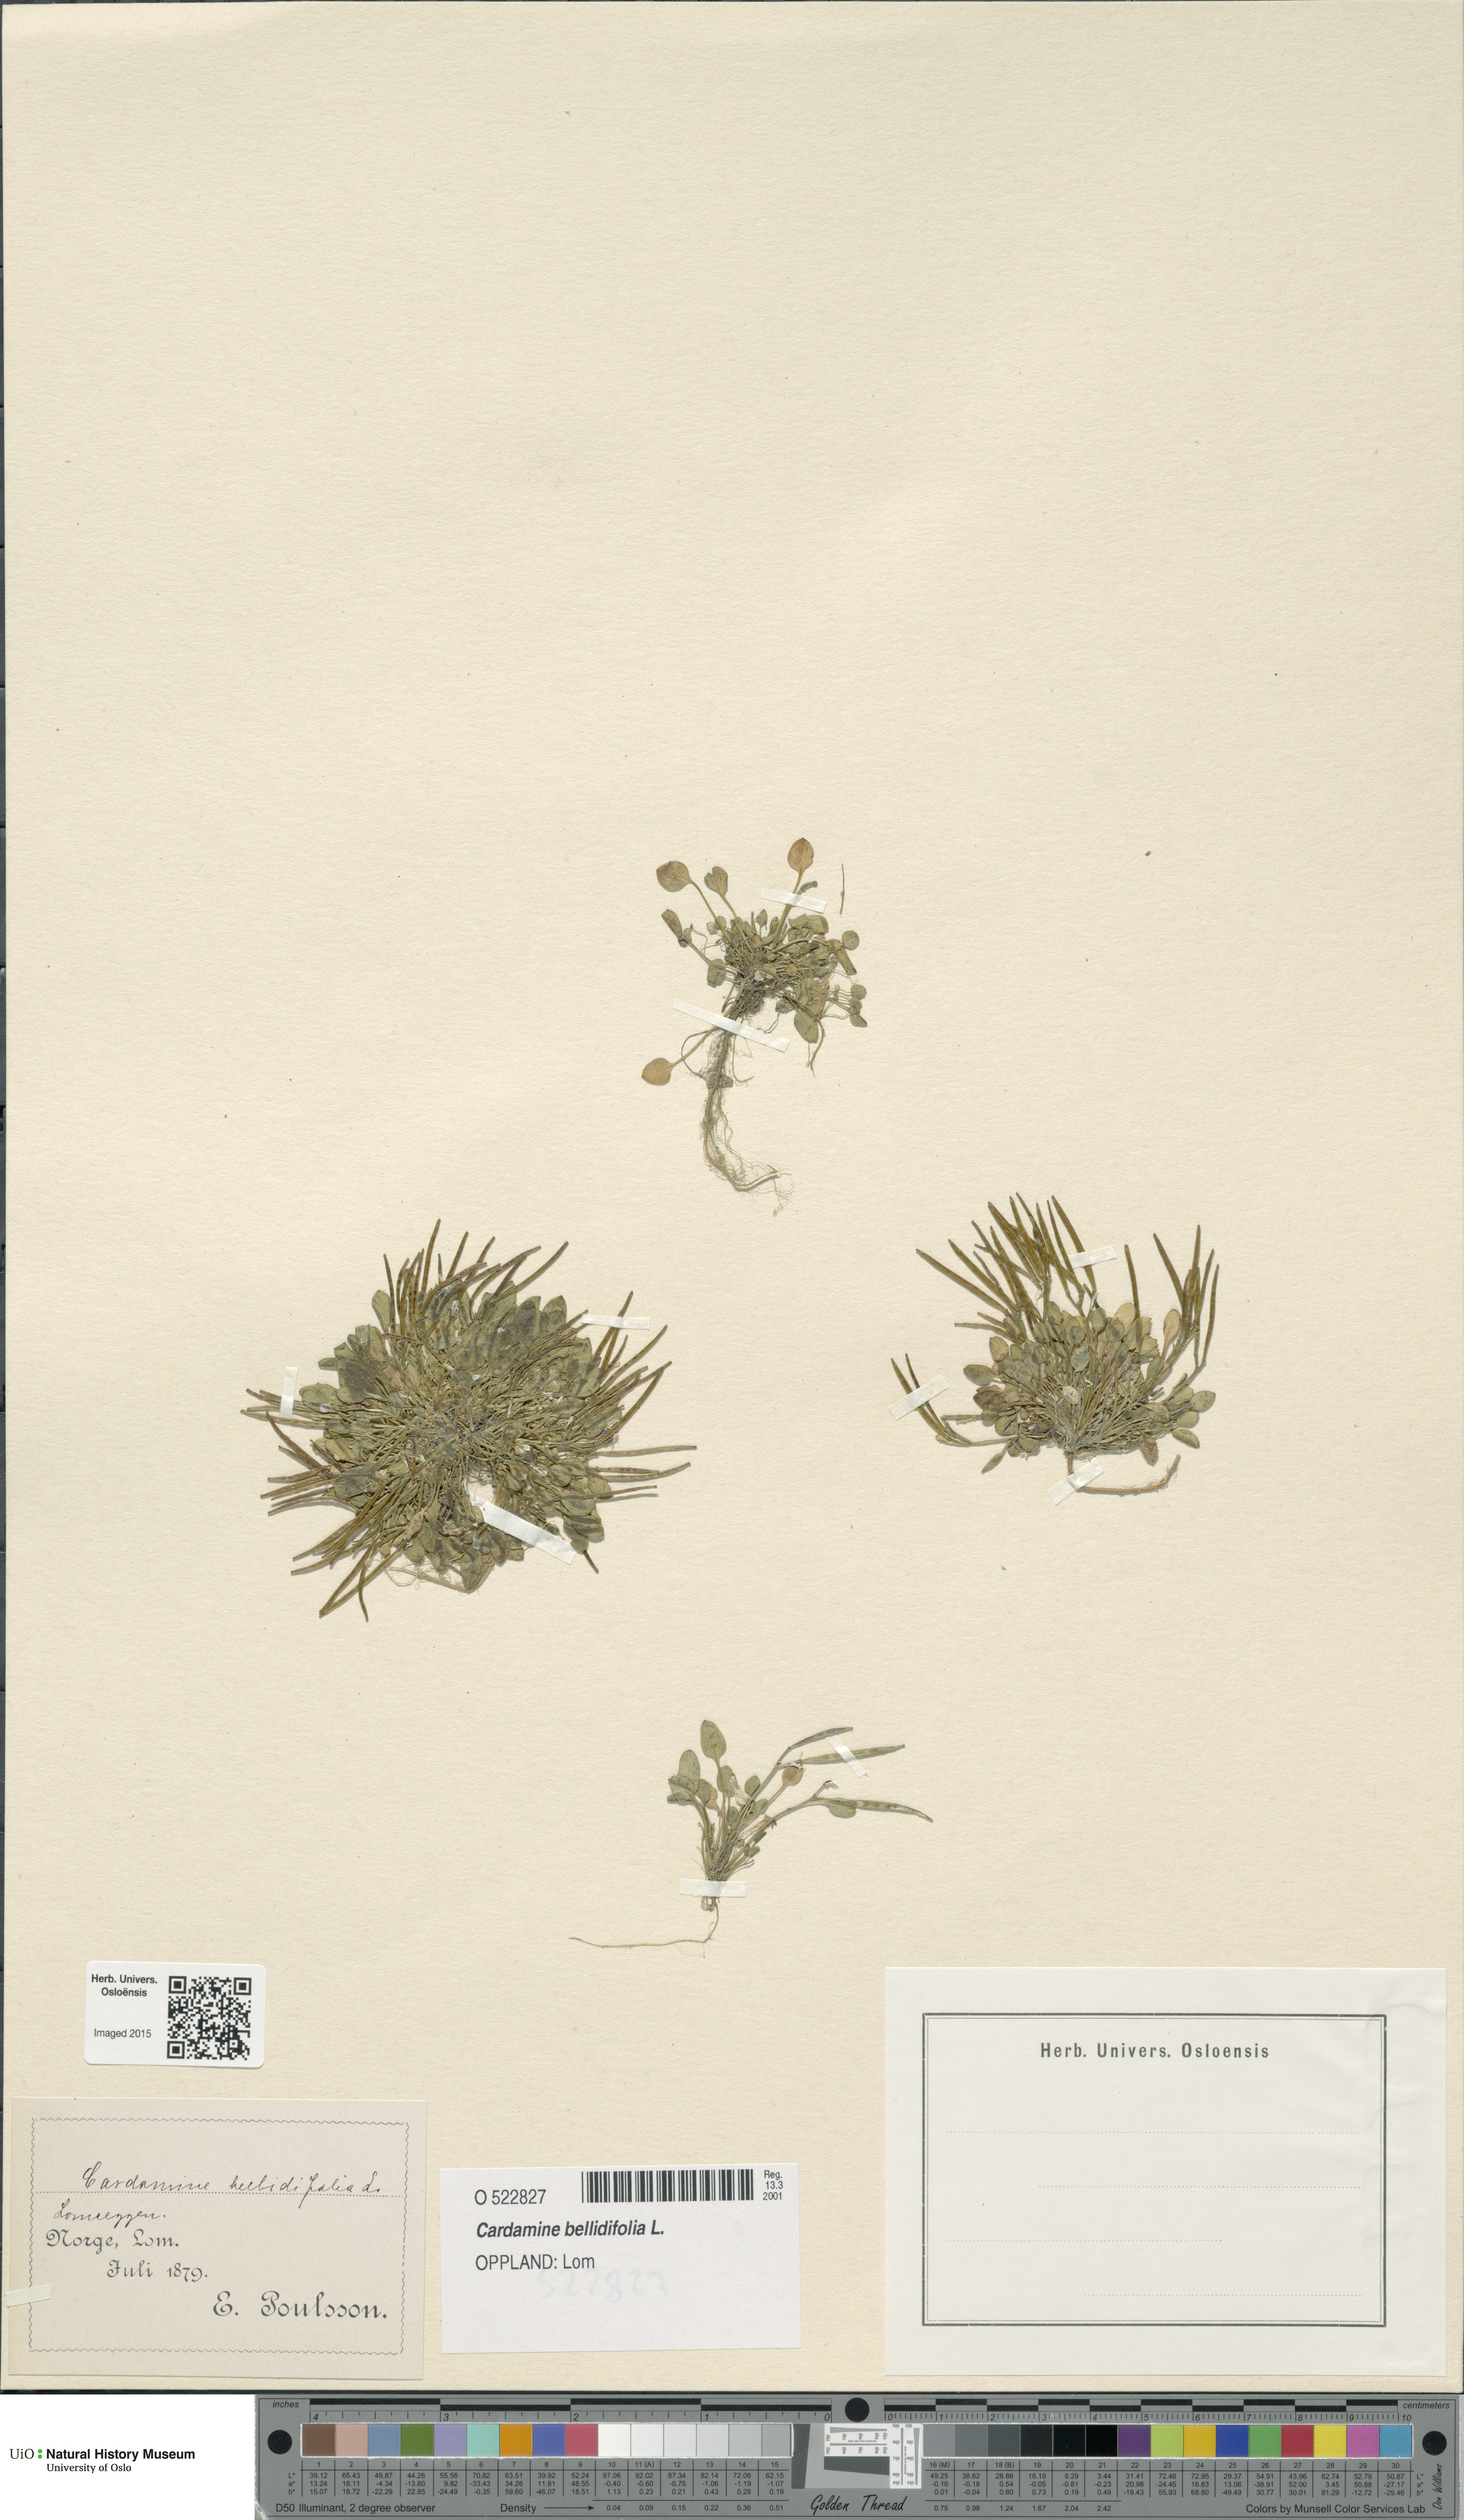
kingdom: Plantae
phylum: Tracheophyta
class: Magnoliopsida
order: Brassicales
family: Brassicaceae
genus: Cardamine
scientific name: Cardamine bellidifolia
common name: Alpine bittercress
